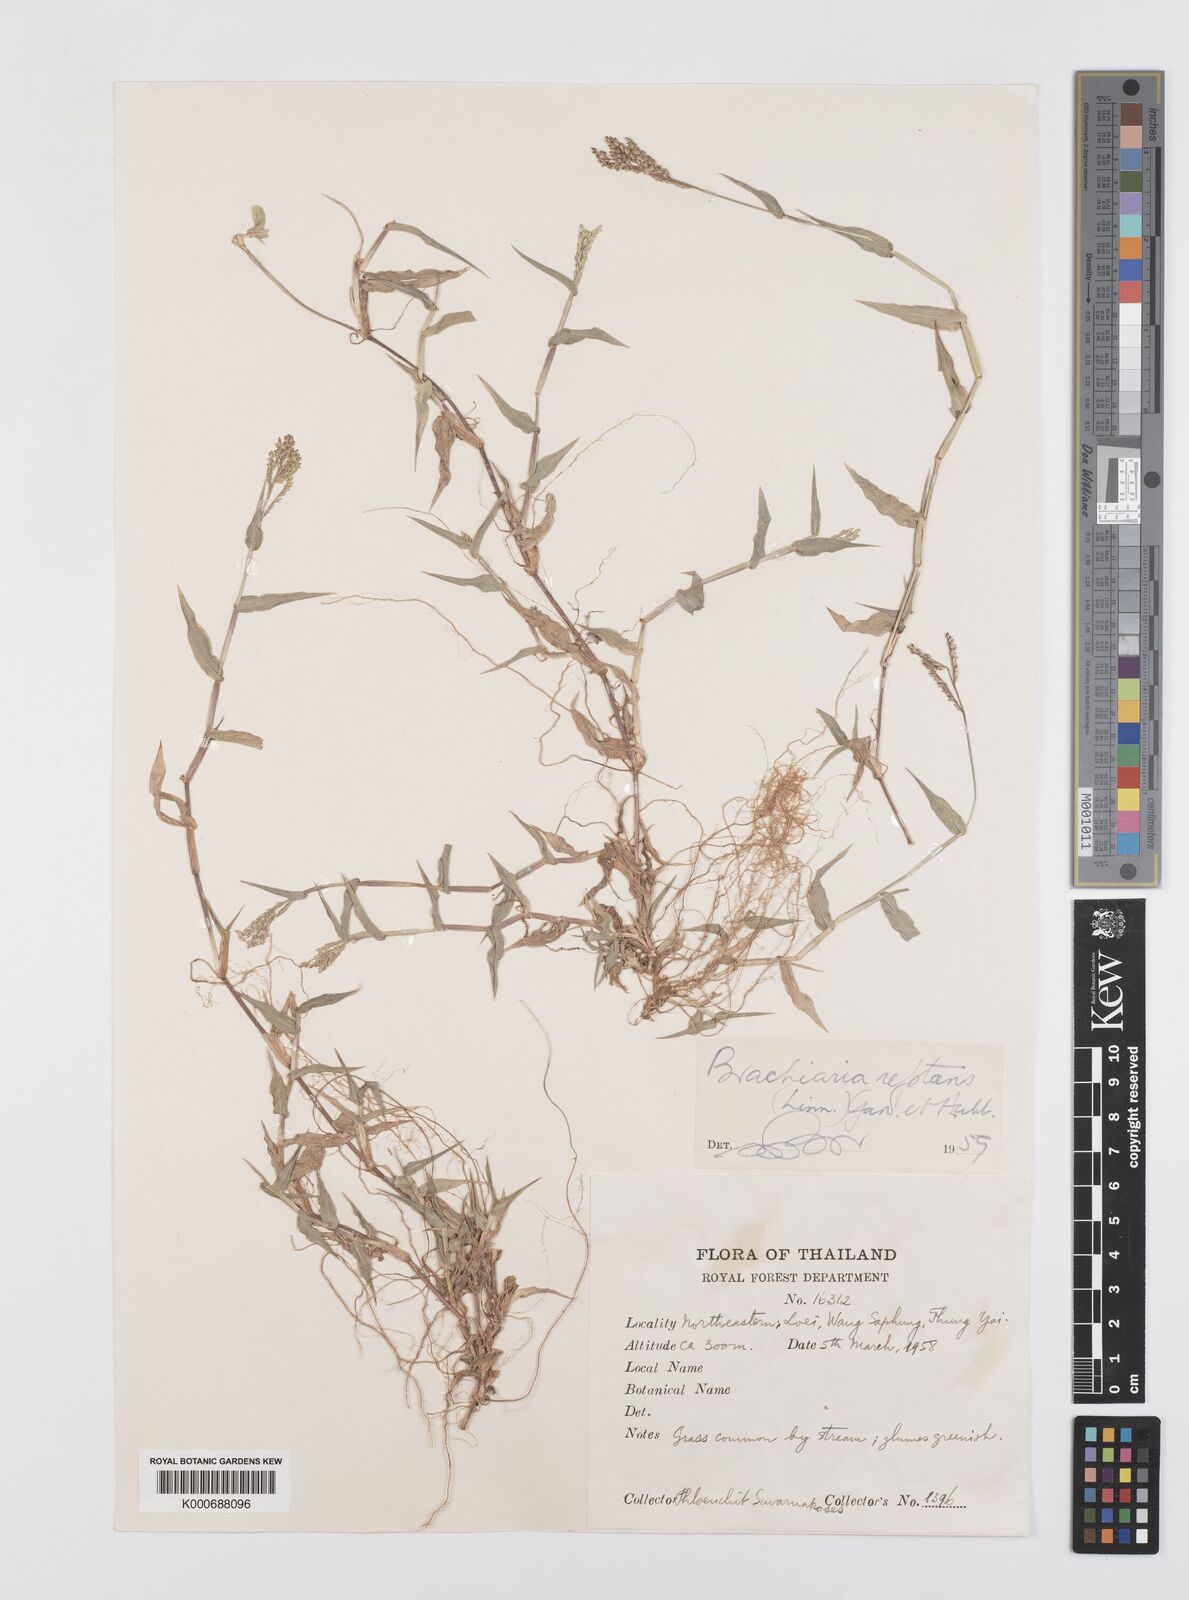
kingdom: Plantae
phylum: Tracheophyta
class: Liliopsida
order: Poales
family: Poaceae
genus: Urochloa
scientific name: Urochloa reptans
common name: Sprawling signalgrass
